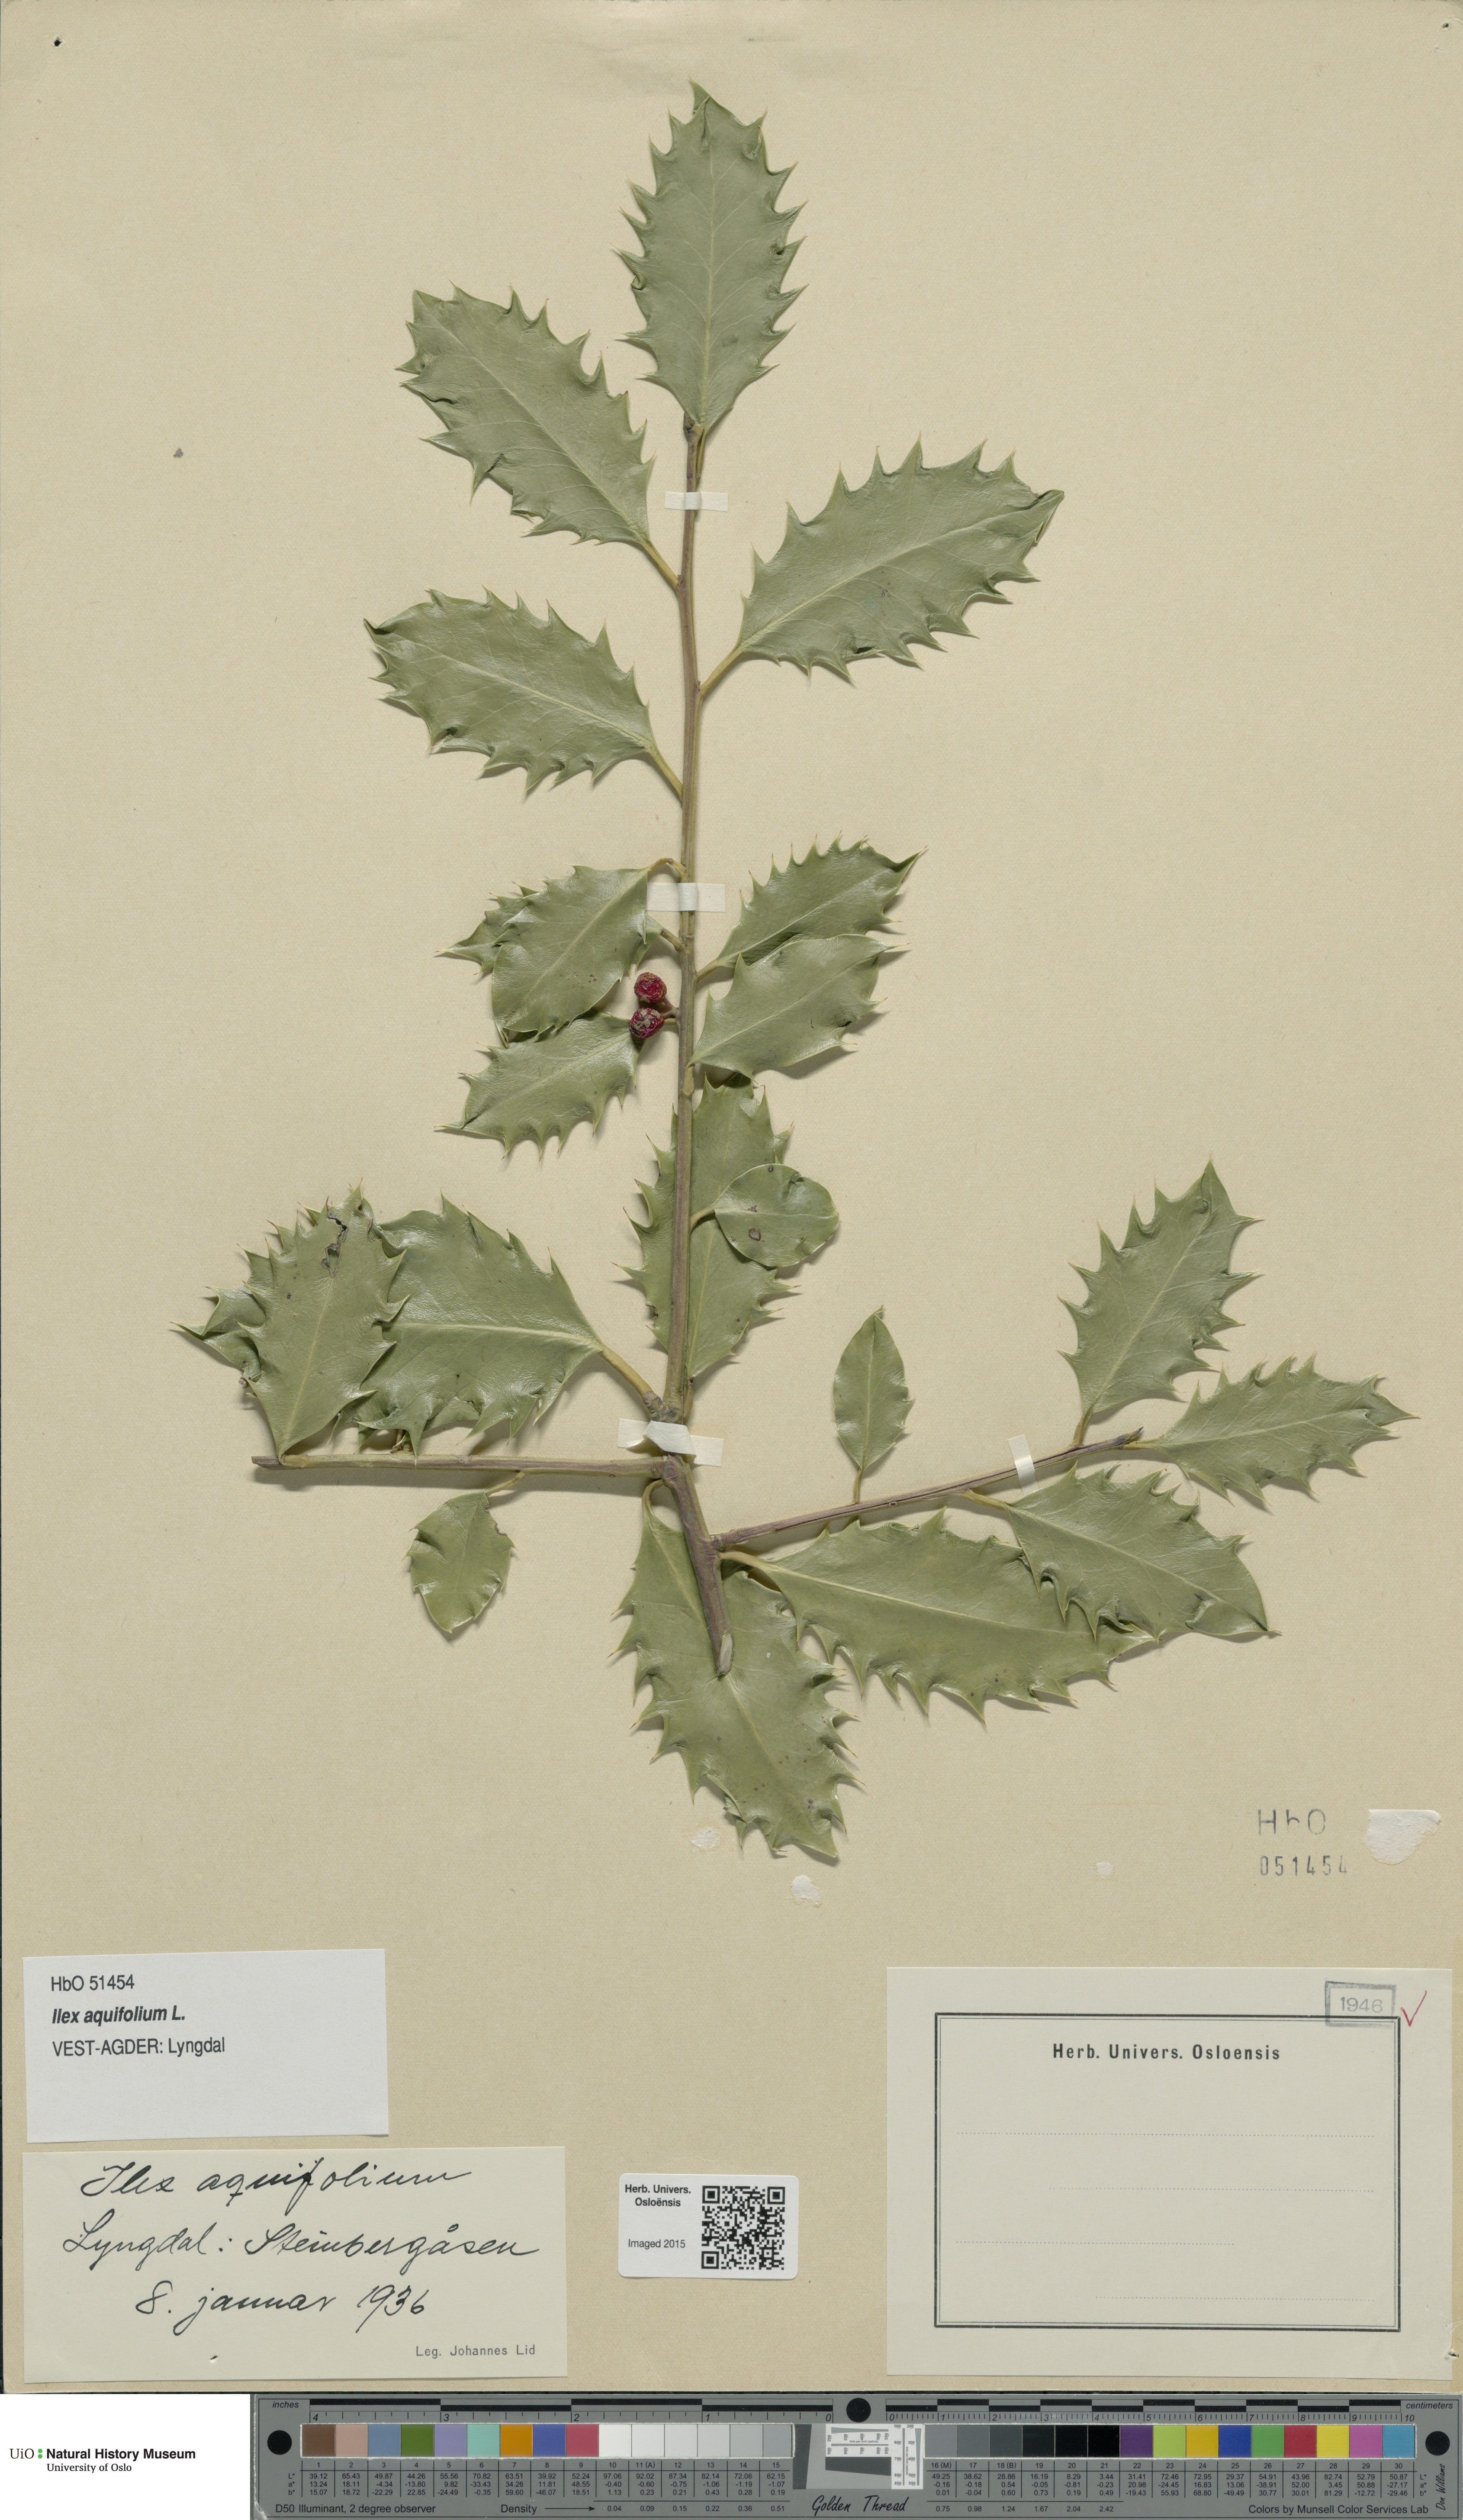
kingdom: Plantae
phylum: Tracheophyta
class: Magnoliopsida
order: Aquifoliales
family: Aquifoliaceae
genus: Ilex
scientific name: Ilex aquifolium
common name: English holly
